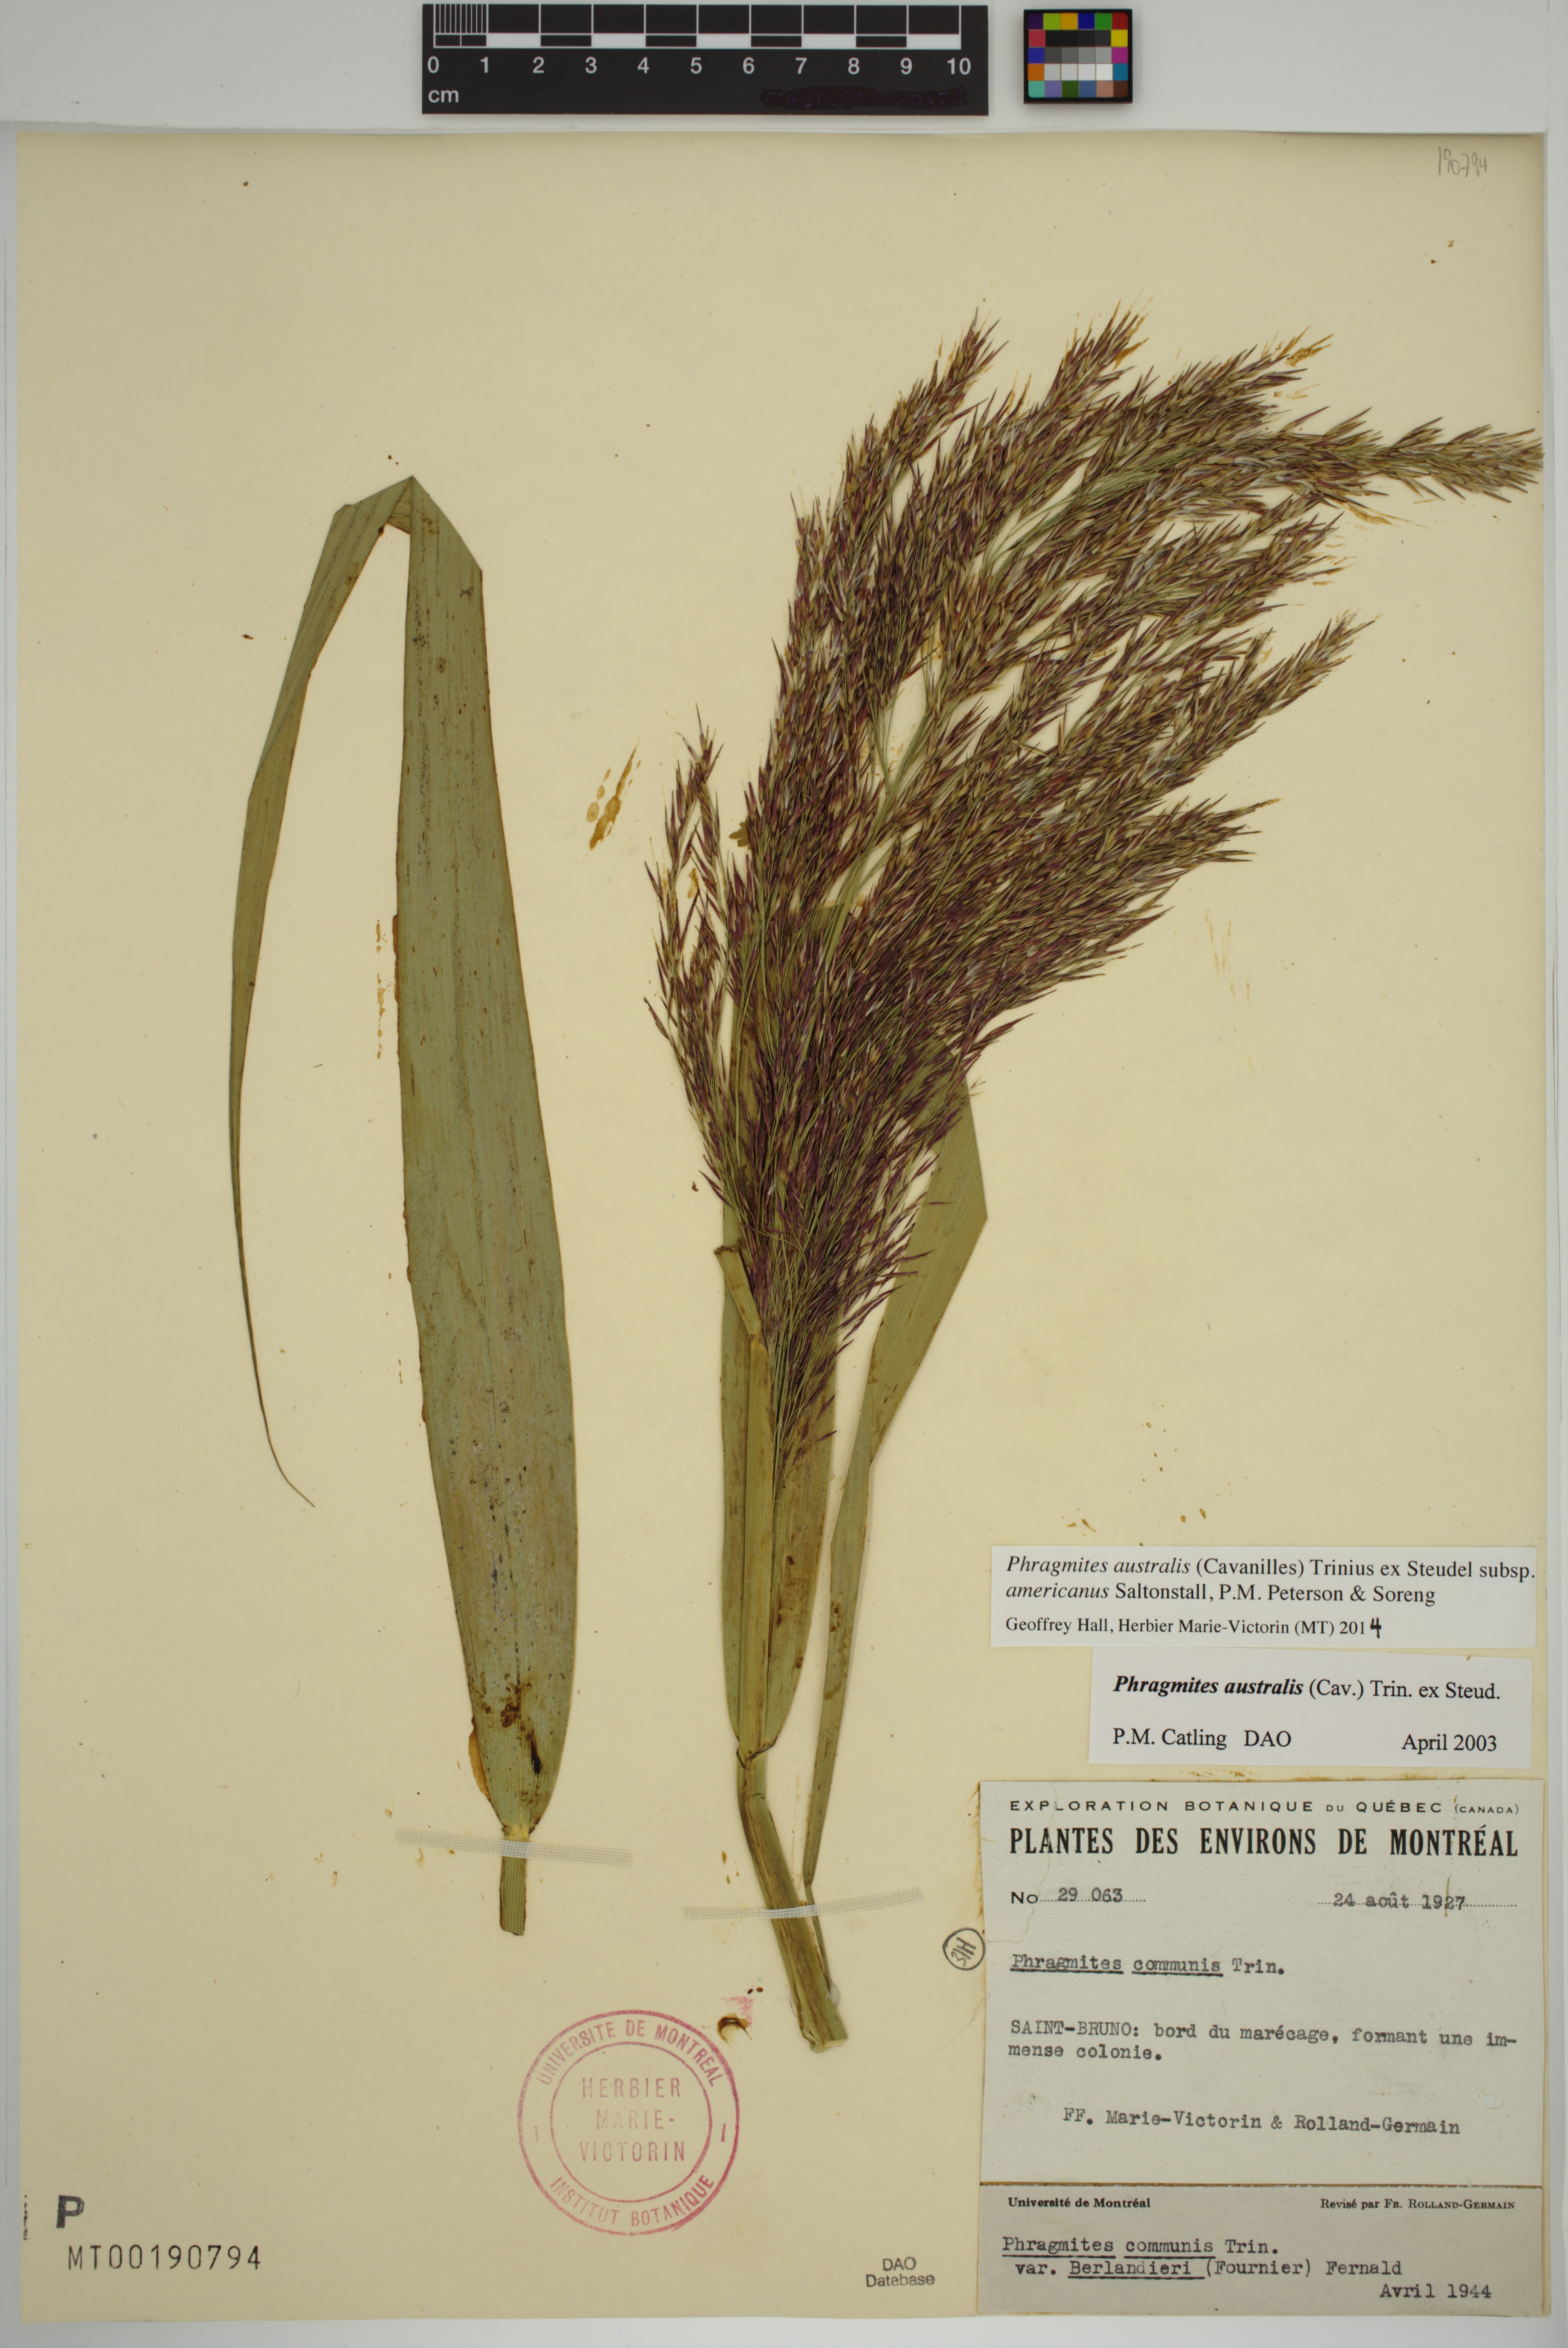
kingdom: Plantae
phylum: Tracheophyta
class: Liliopsida
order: Poales
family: Poaceae
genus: Phragmites
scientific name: Phragmites australis
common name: Common reed
